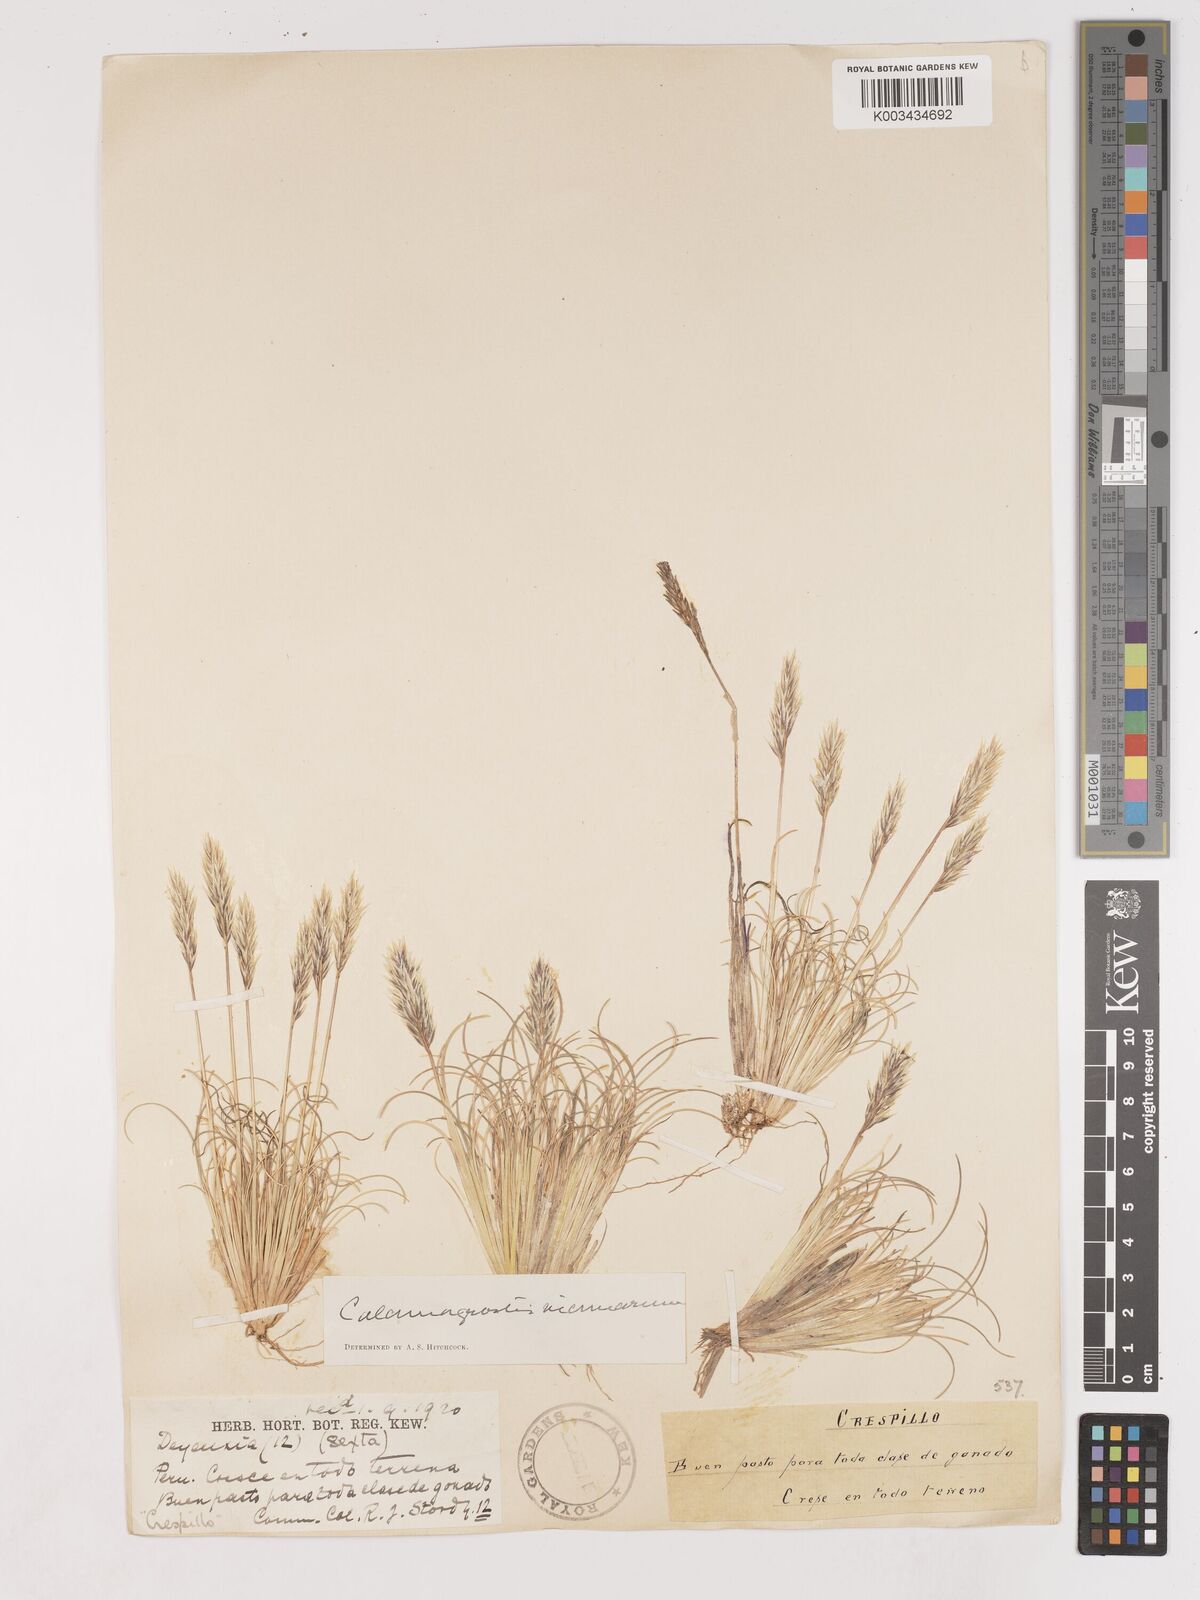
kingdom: Plantae
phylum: Tracheophyta
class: Liliopsida
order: Poales
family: Poaceae
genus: Cinnagrostis
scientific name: Cinnagrostis vicunarum
